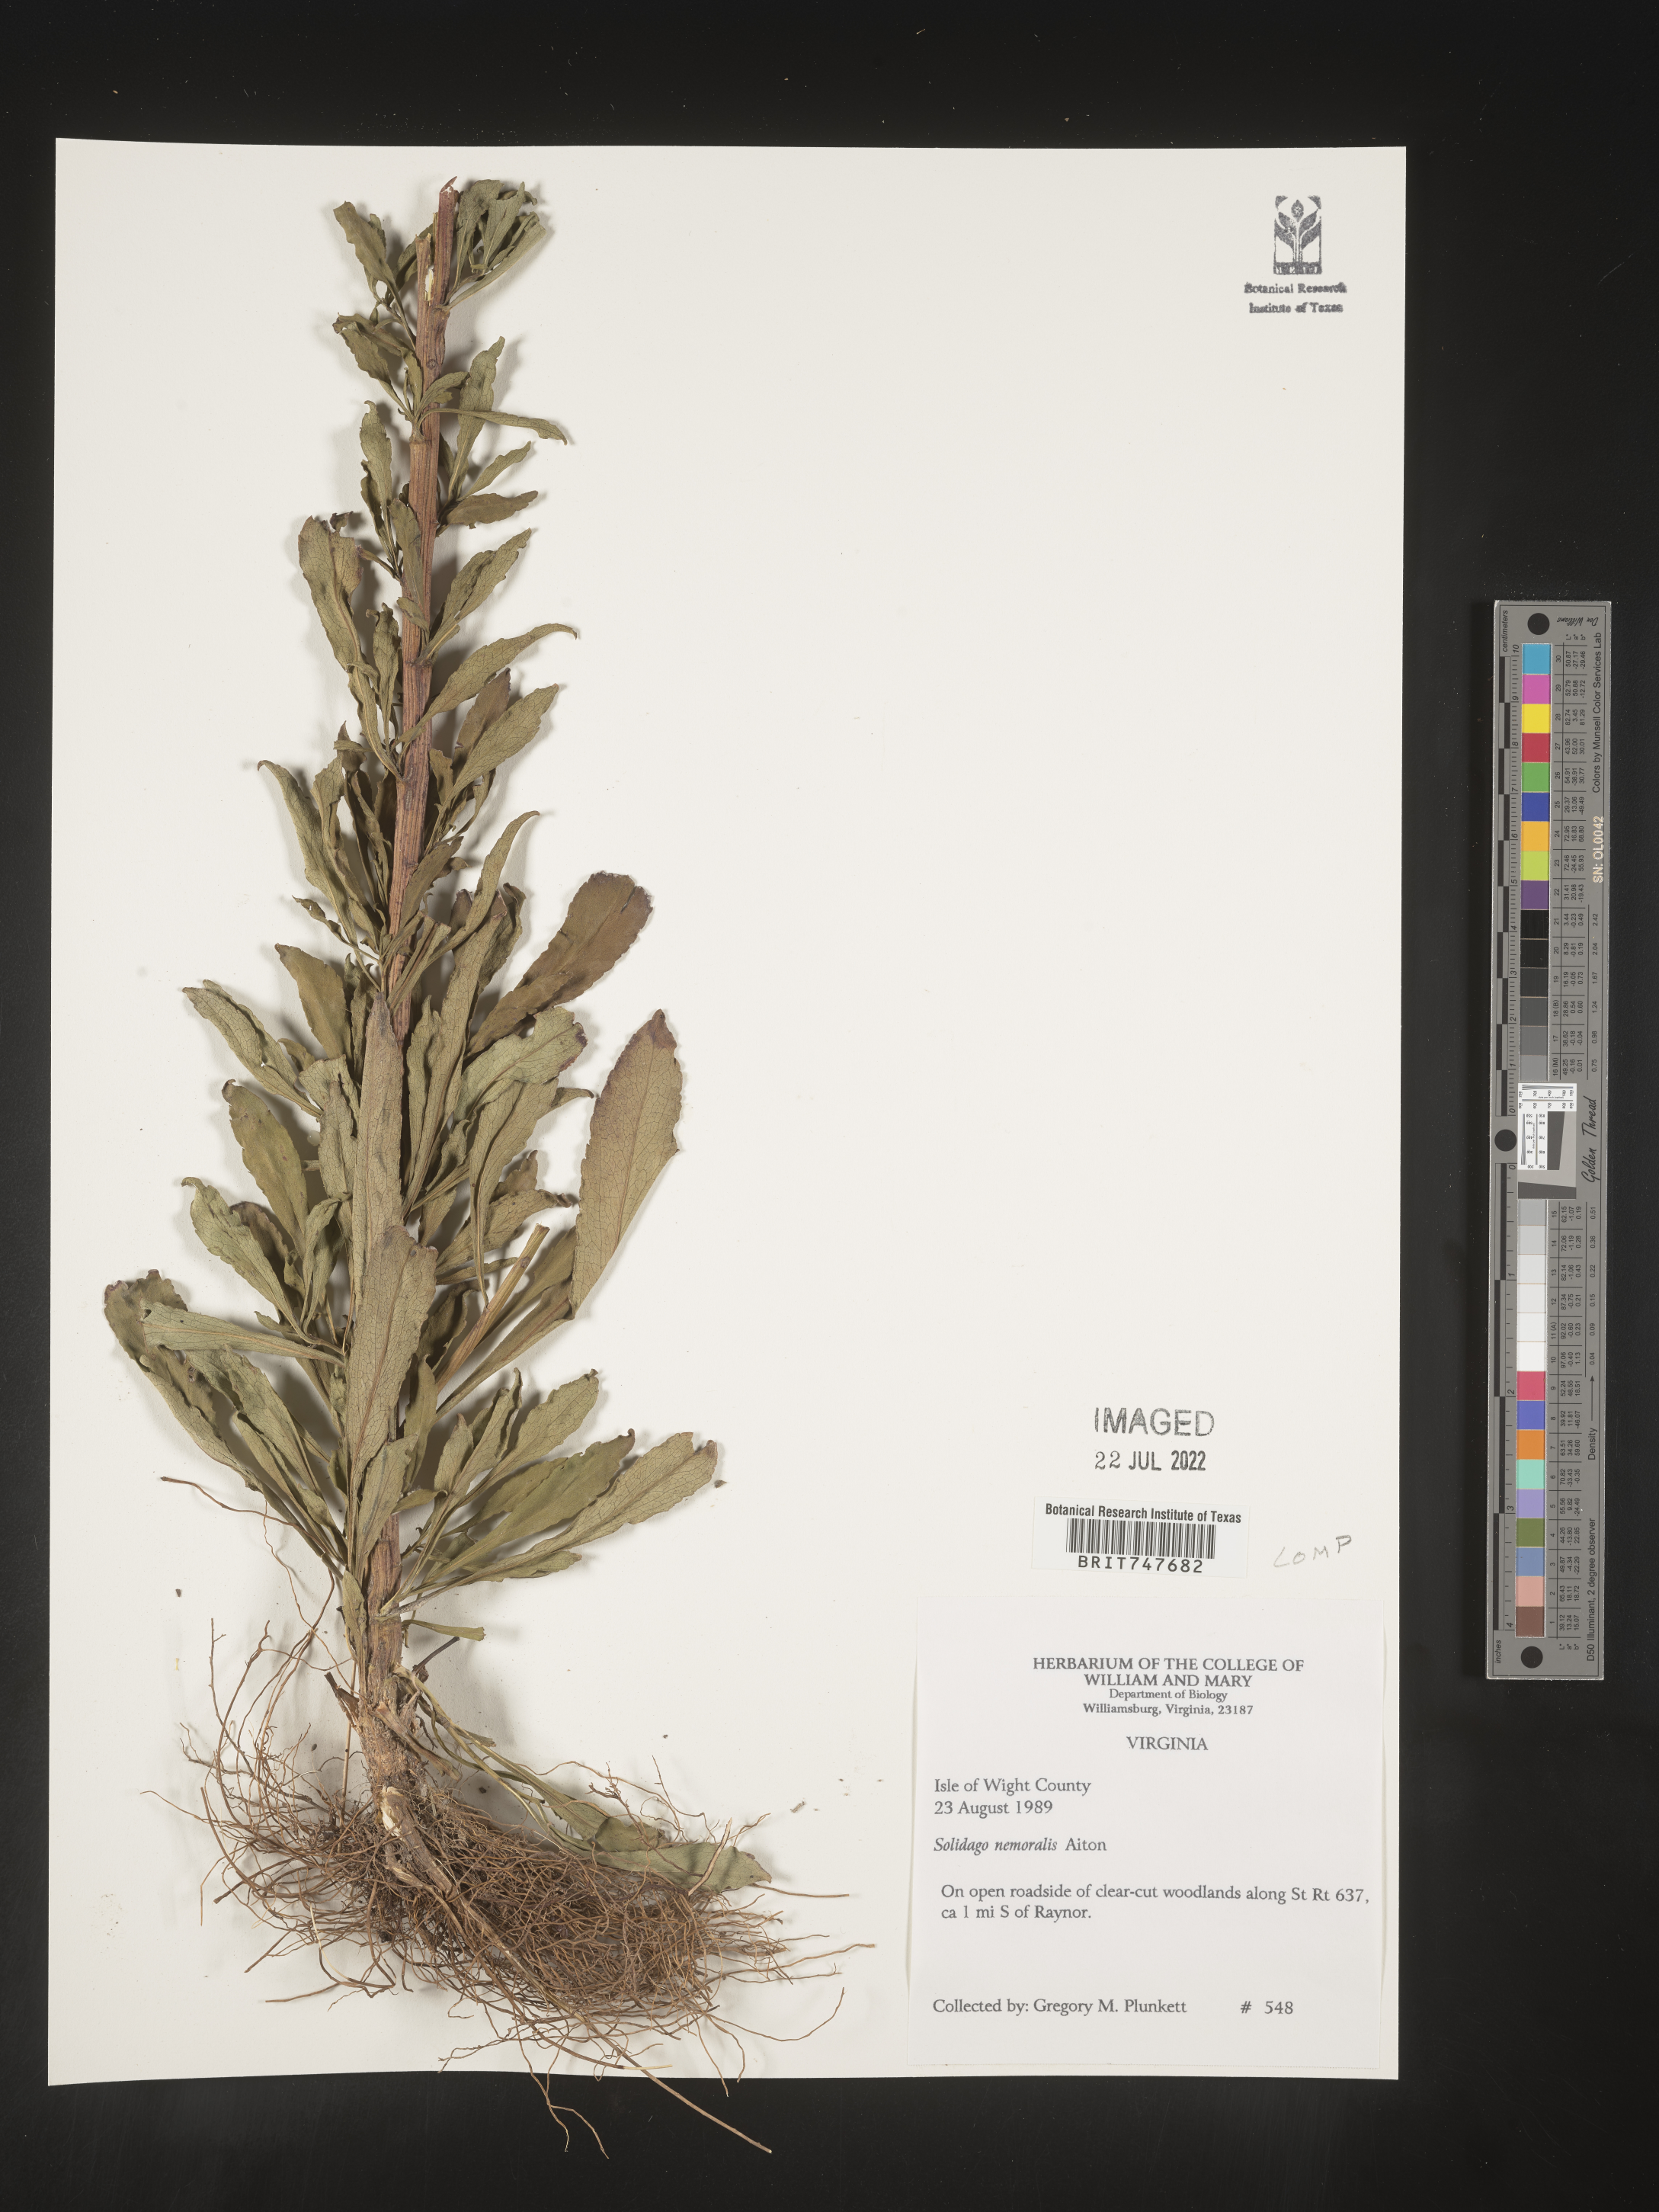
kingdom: Plantae
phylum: Tracheophyta
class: Magnoliopsida
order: Asterales
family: Asteraceae
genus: Solidago
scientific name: Solidago nemoralis
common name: Grey goldenrod
